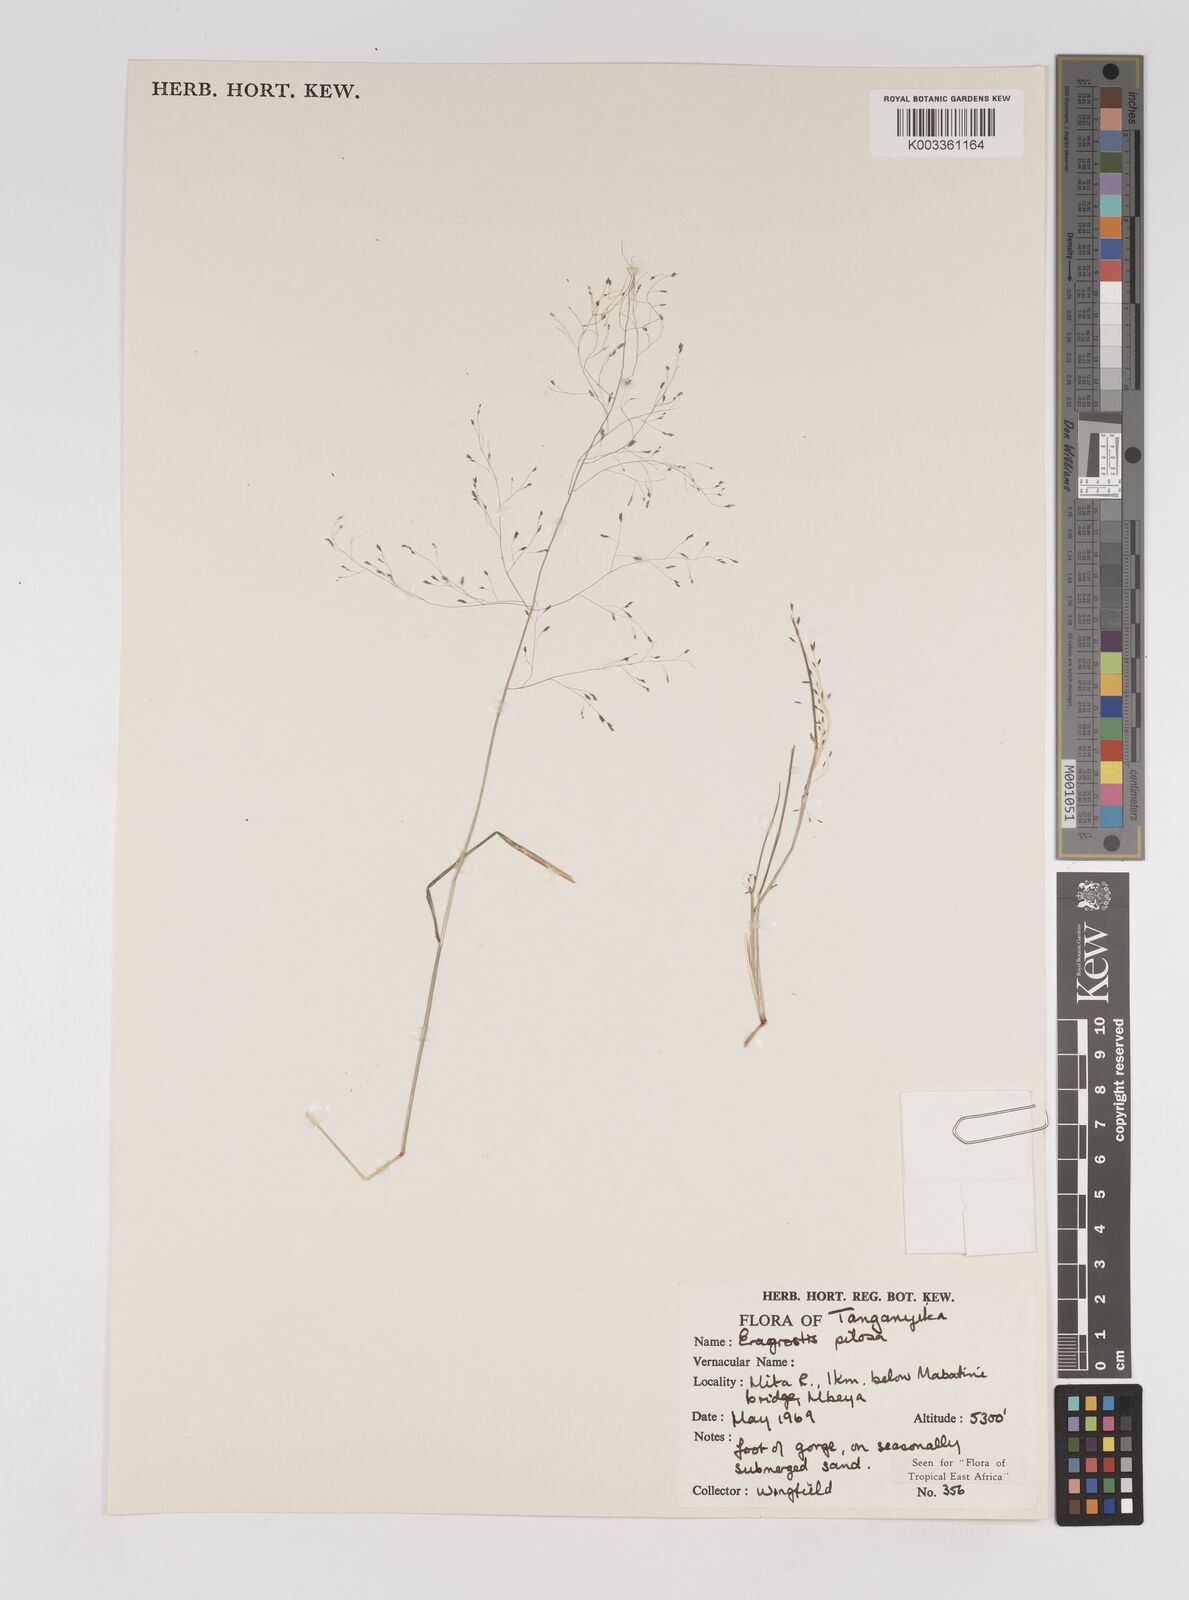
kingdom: Plantae
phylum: Tracheophyta
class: Liliopsida
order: Poales
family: Poaceae
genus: Eragrostis
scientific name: Eragrostis pilosa
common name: Indian lovegrass
